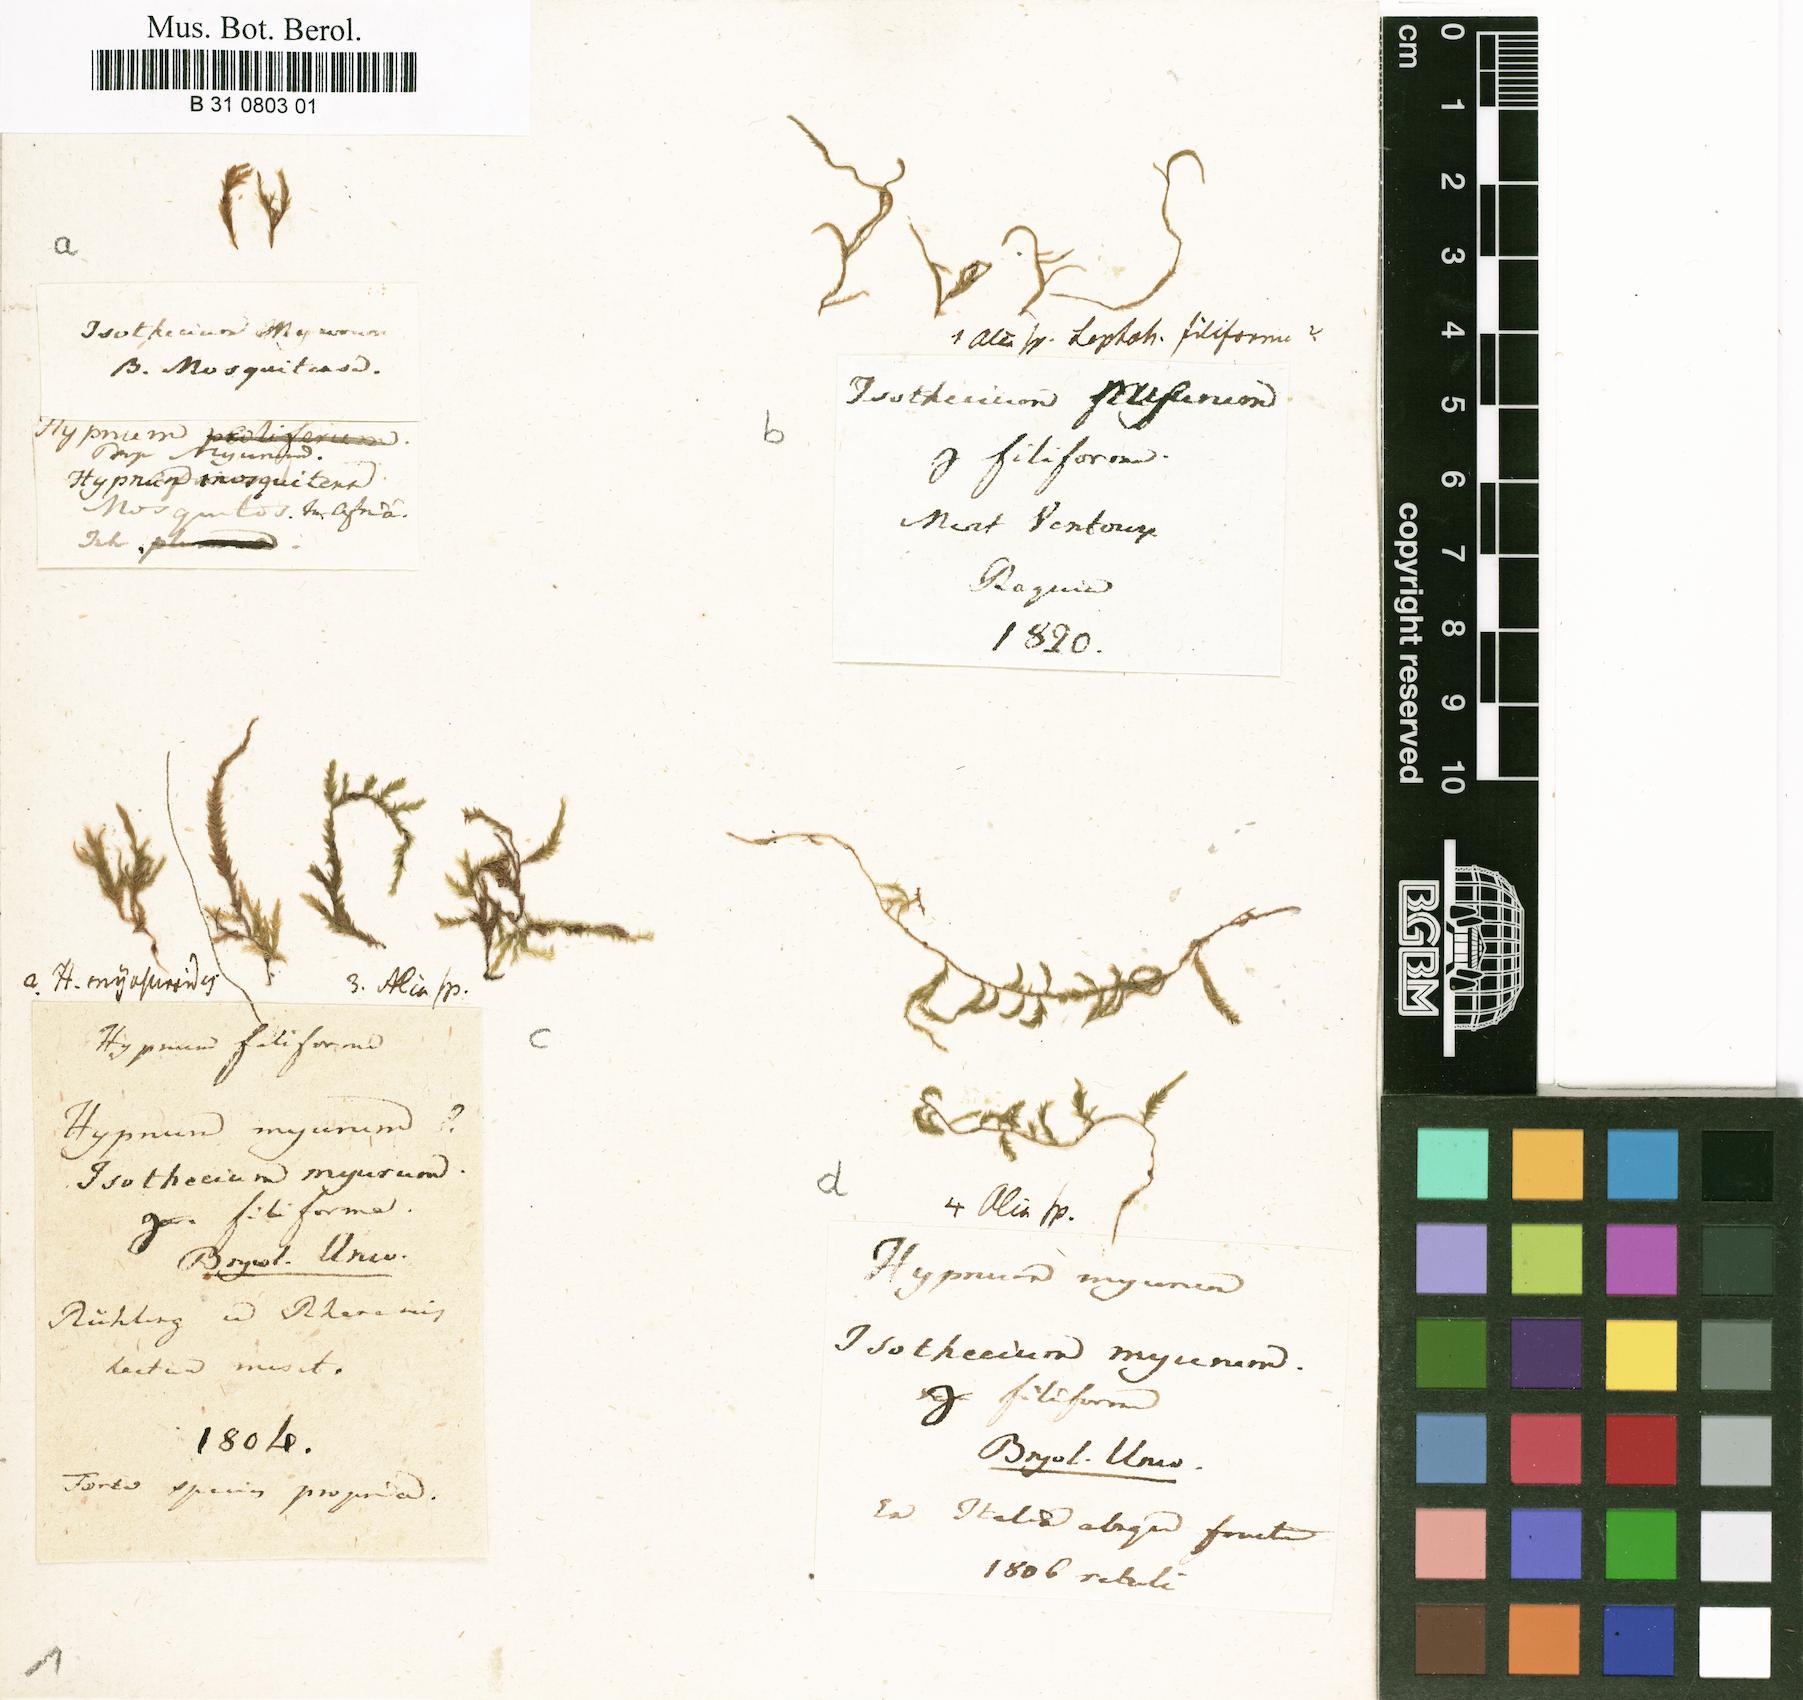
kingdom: Plantae
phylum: Bryophyta
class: Bryopsida
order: Hypnales
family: Lembophyllaceae
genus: Isothecium
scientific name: Isothecium alopecuroides
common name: Larger mouse-tail moss
